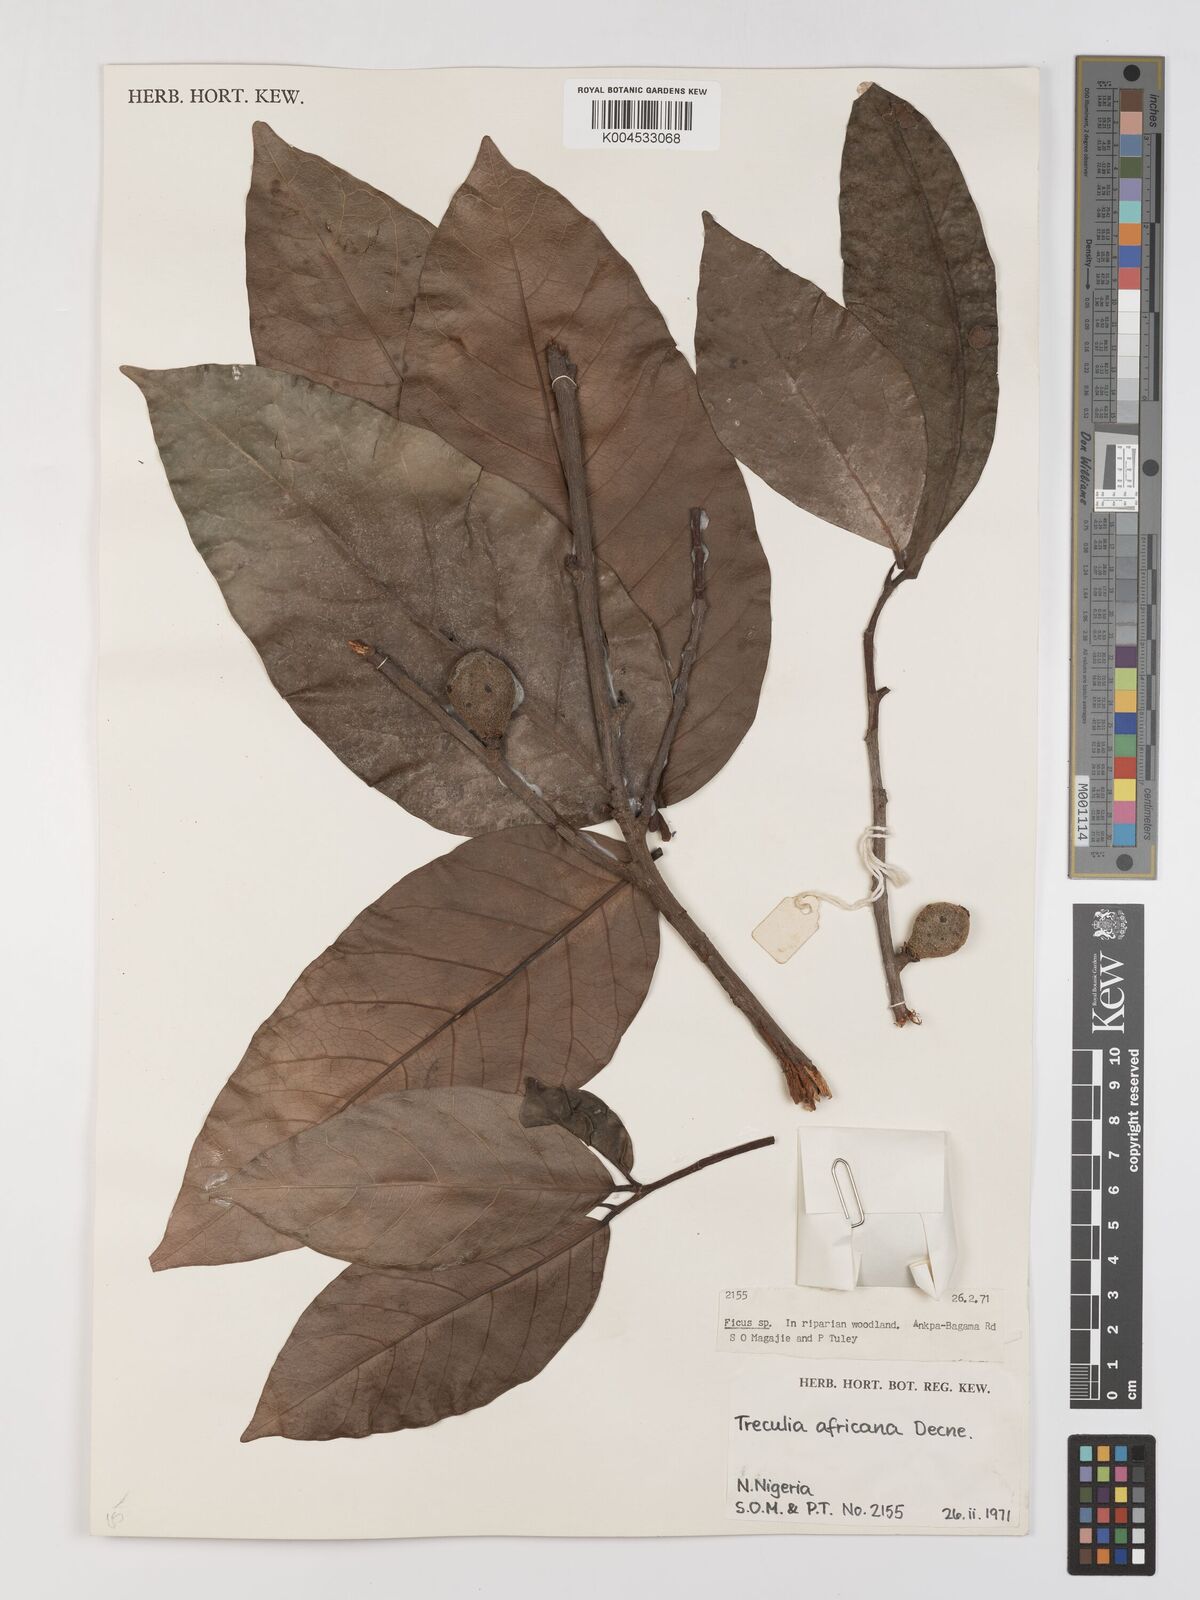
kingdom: Plantae
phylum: Tracheophyta
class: Magnoliopsida
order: Rosales
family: Moraceae
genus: Treculia
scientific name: Treculia africana
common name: African breadfruit
